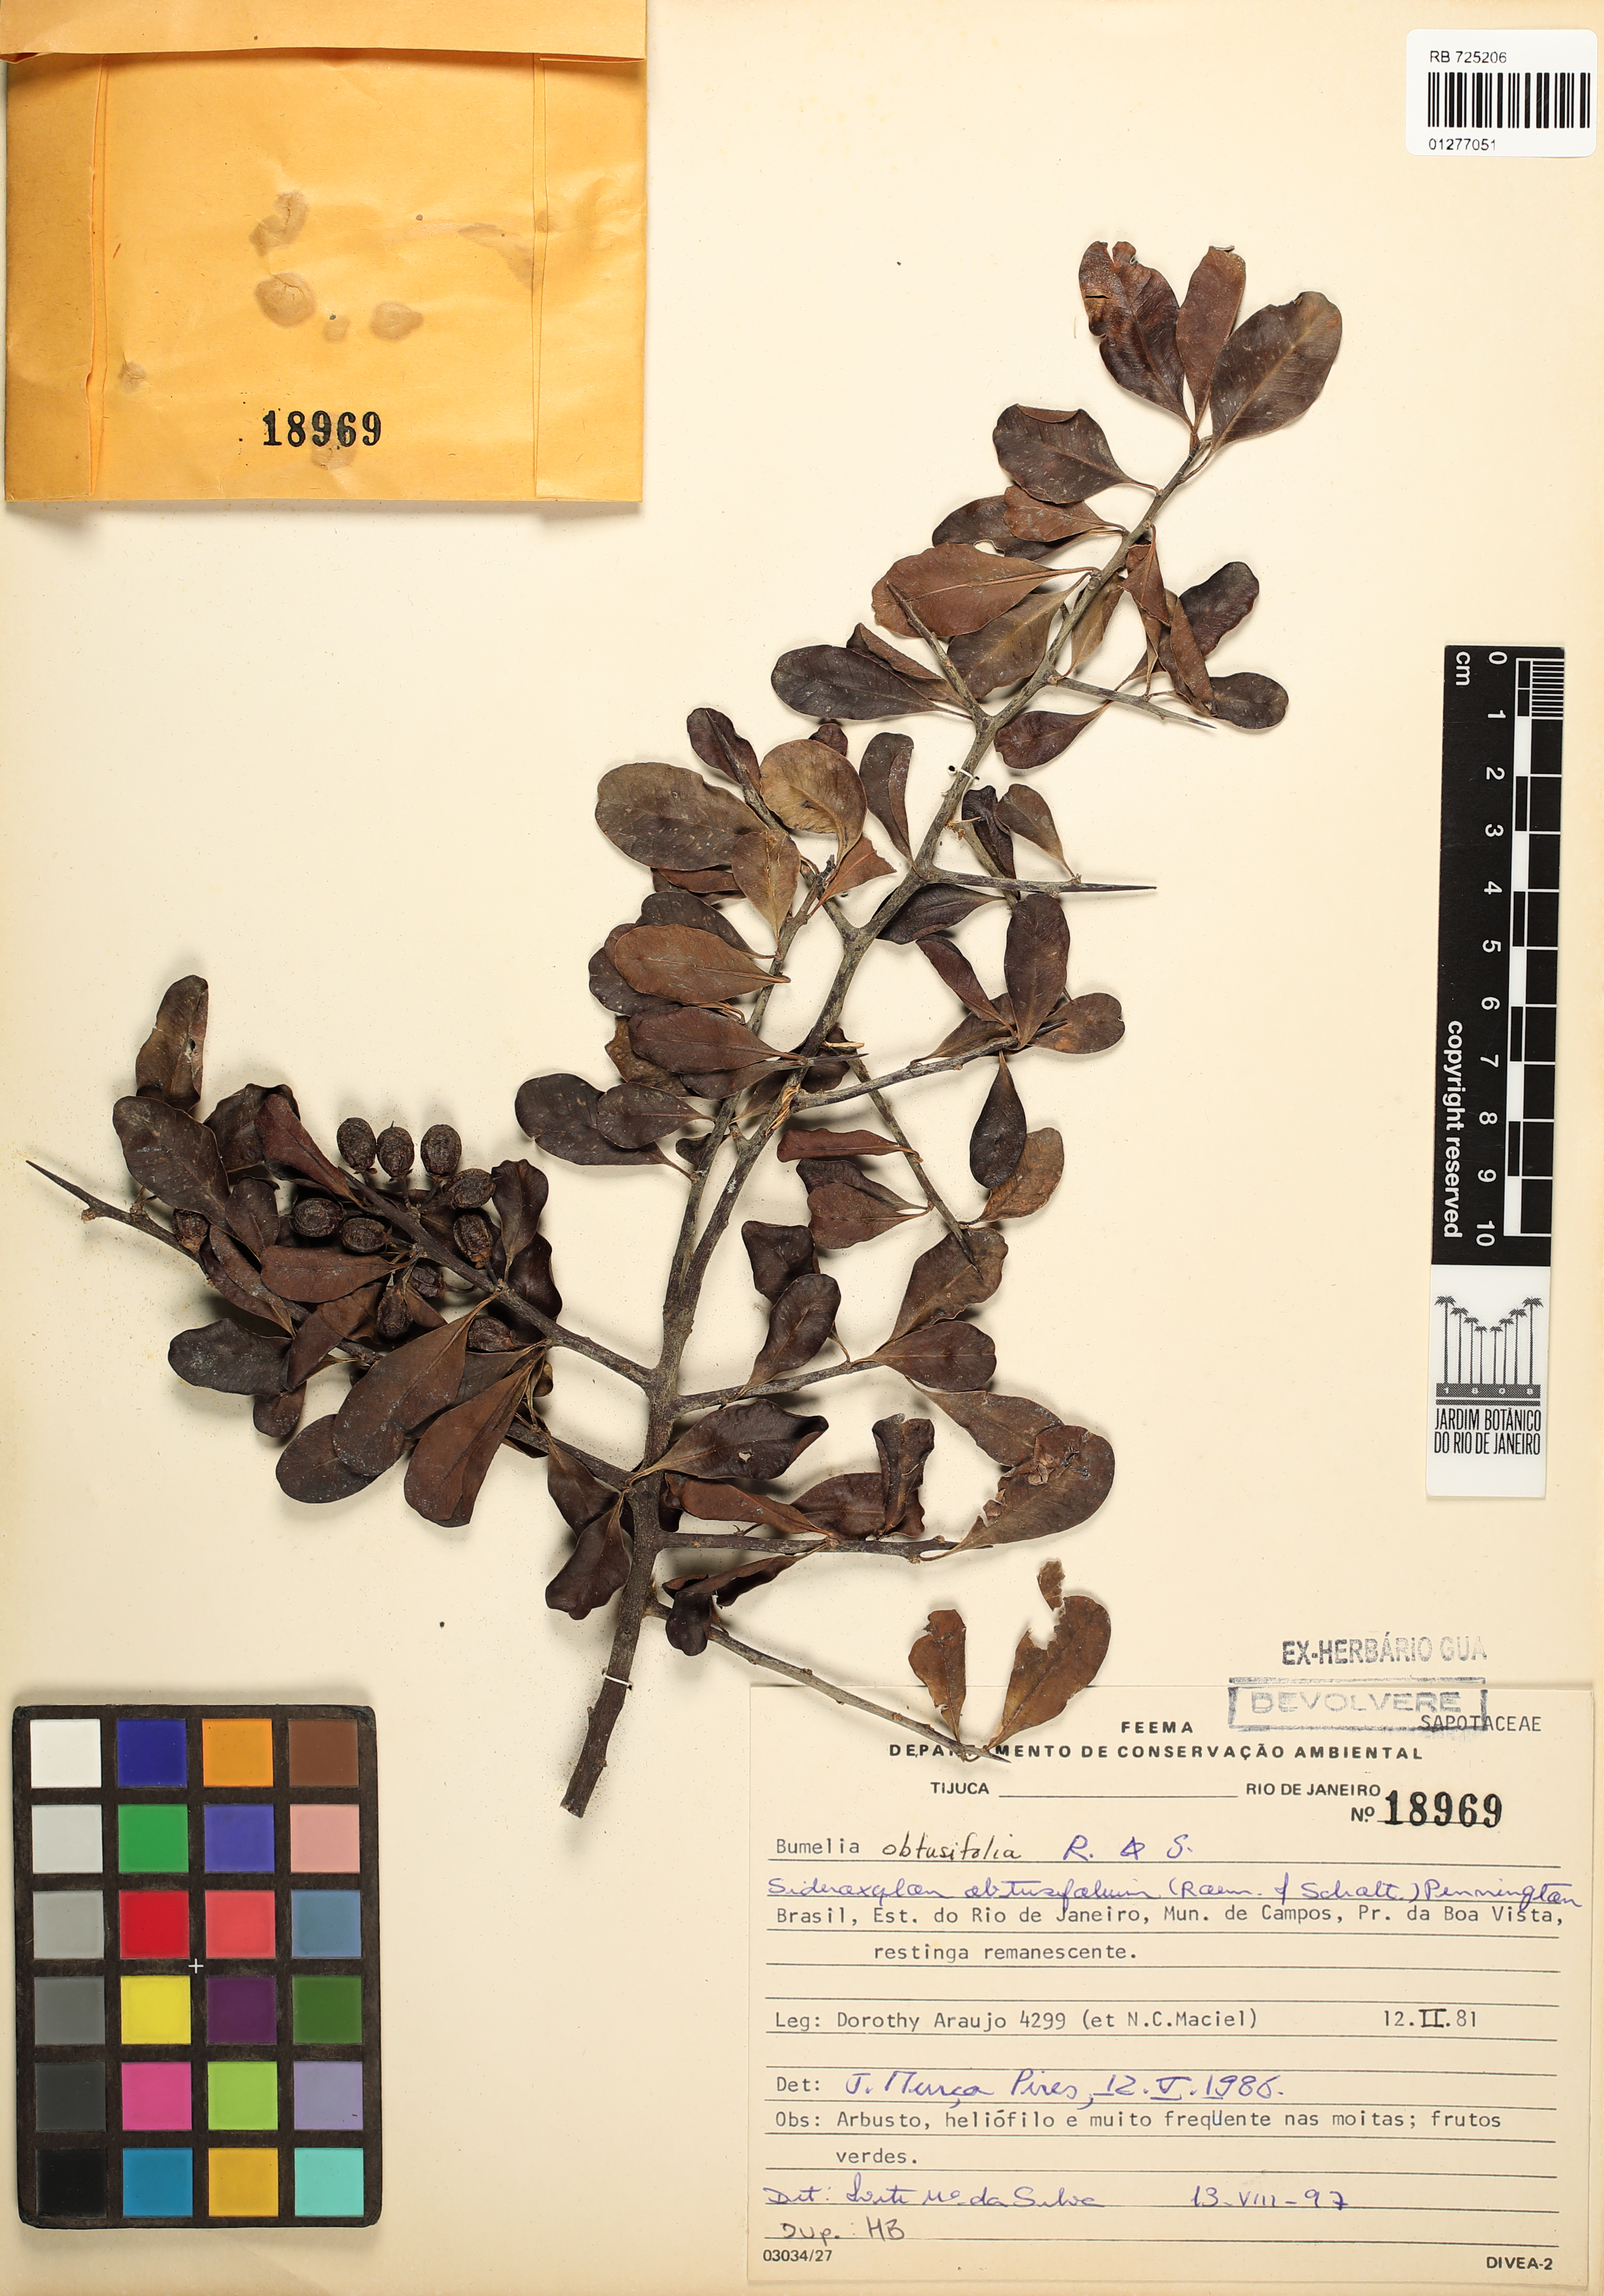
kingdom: Plantae
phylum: Tracheophyta
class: Magnoliopsida
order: Ericales
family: Sapotaceae
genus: Sideroxylon
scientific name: Sideroxylon obtusifolium
